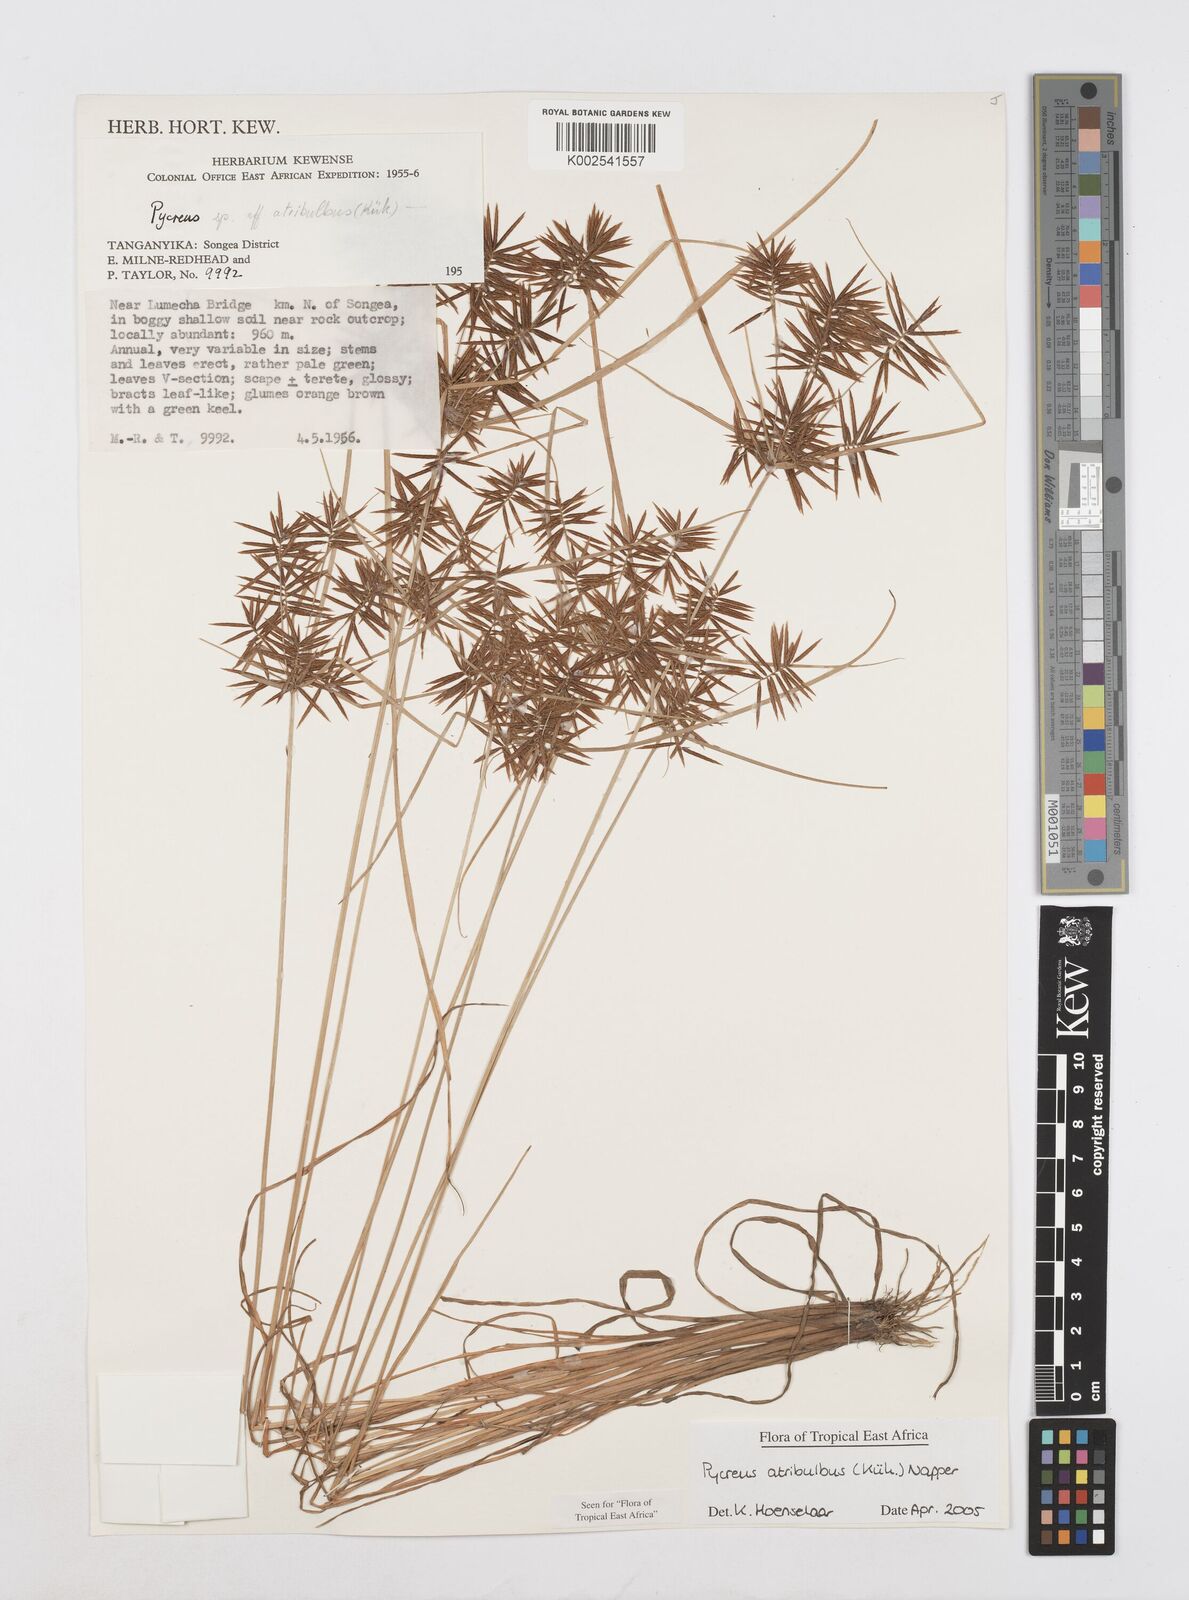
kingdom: Plantae
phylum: Tracheophyta
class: Liliopsida
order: Poales
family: Cyperaceae
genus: Cyperus
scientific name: Cyperus intactus
